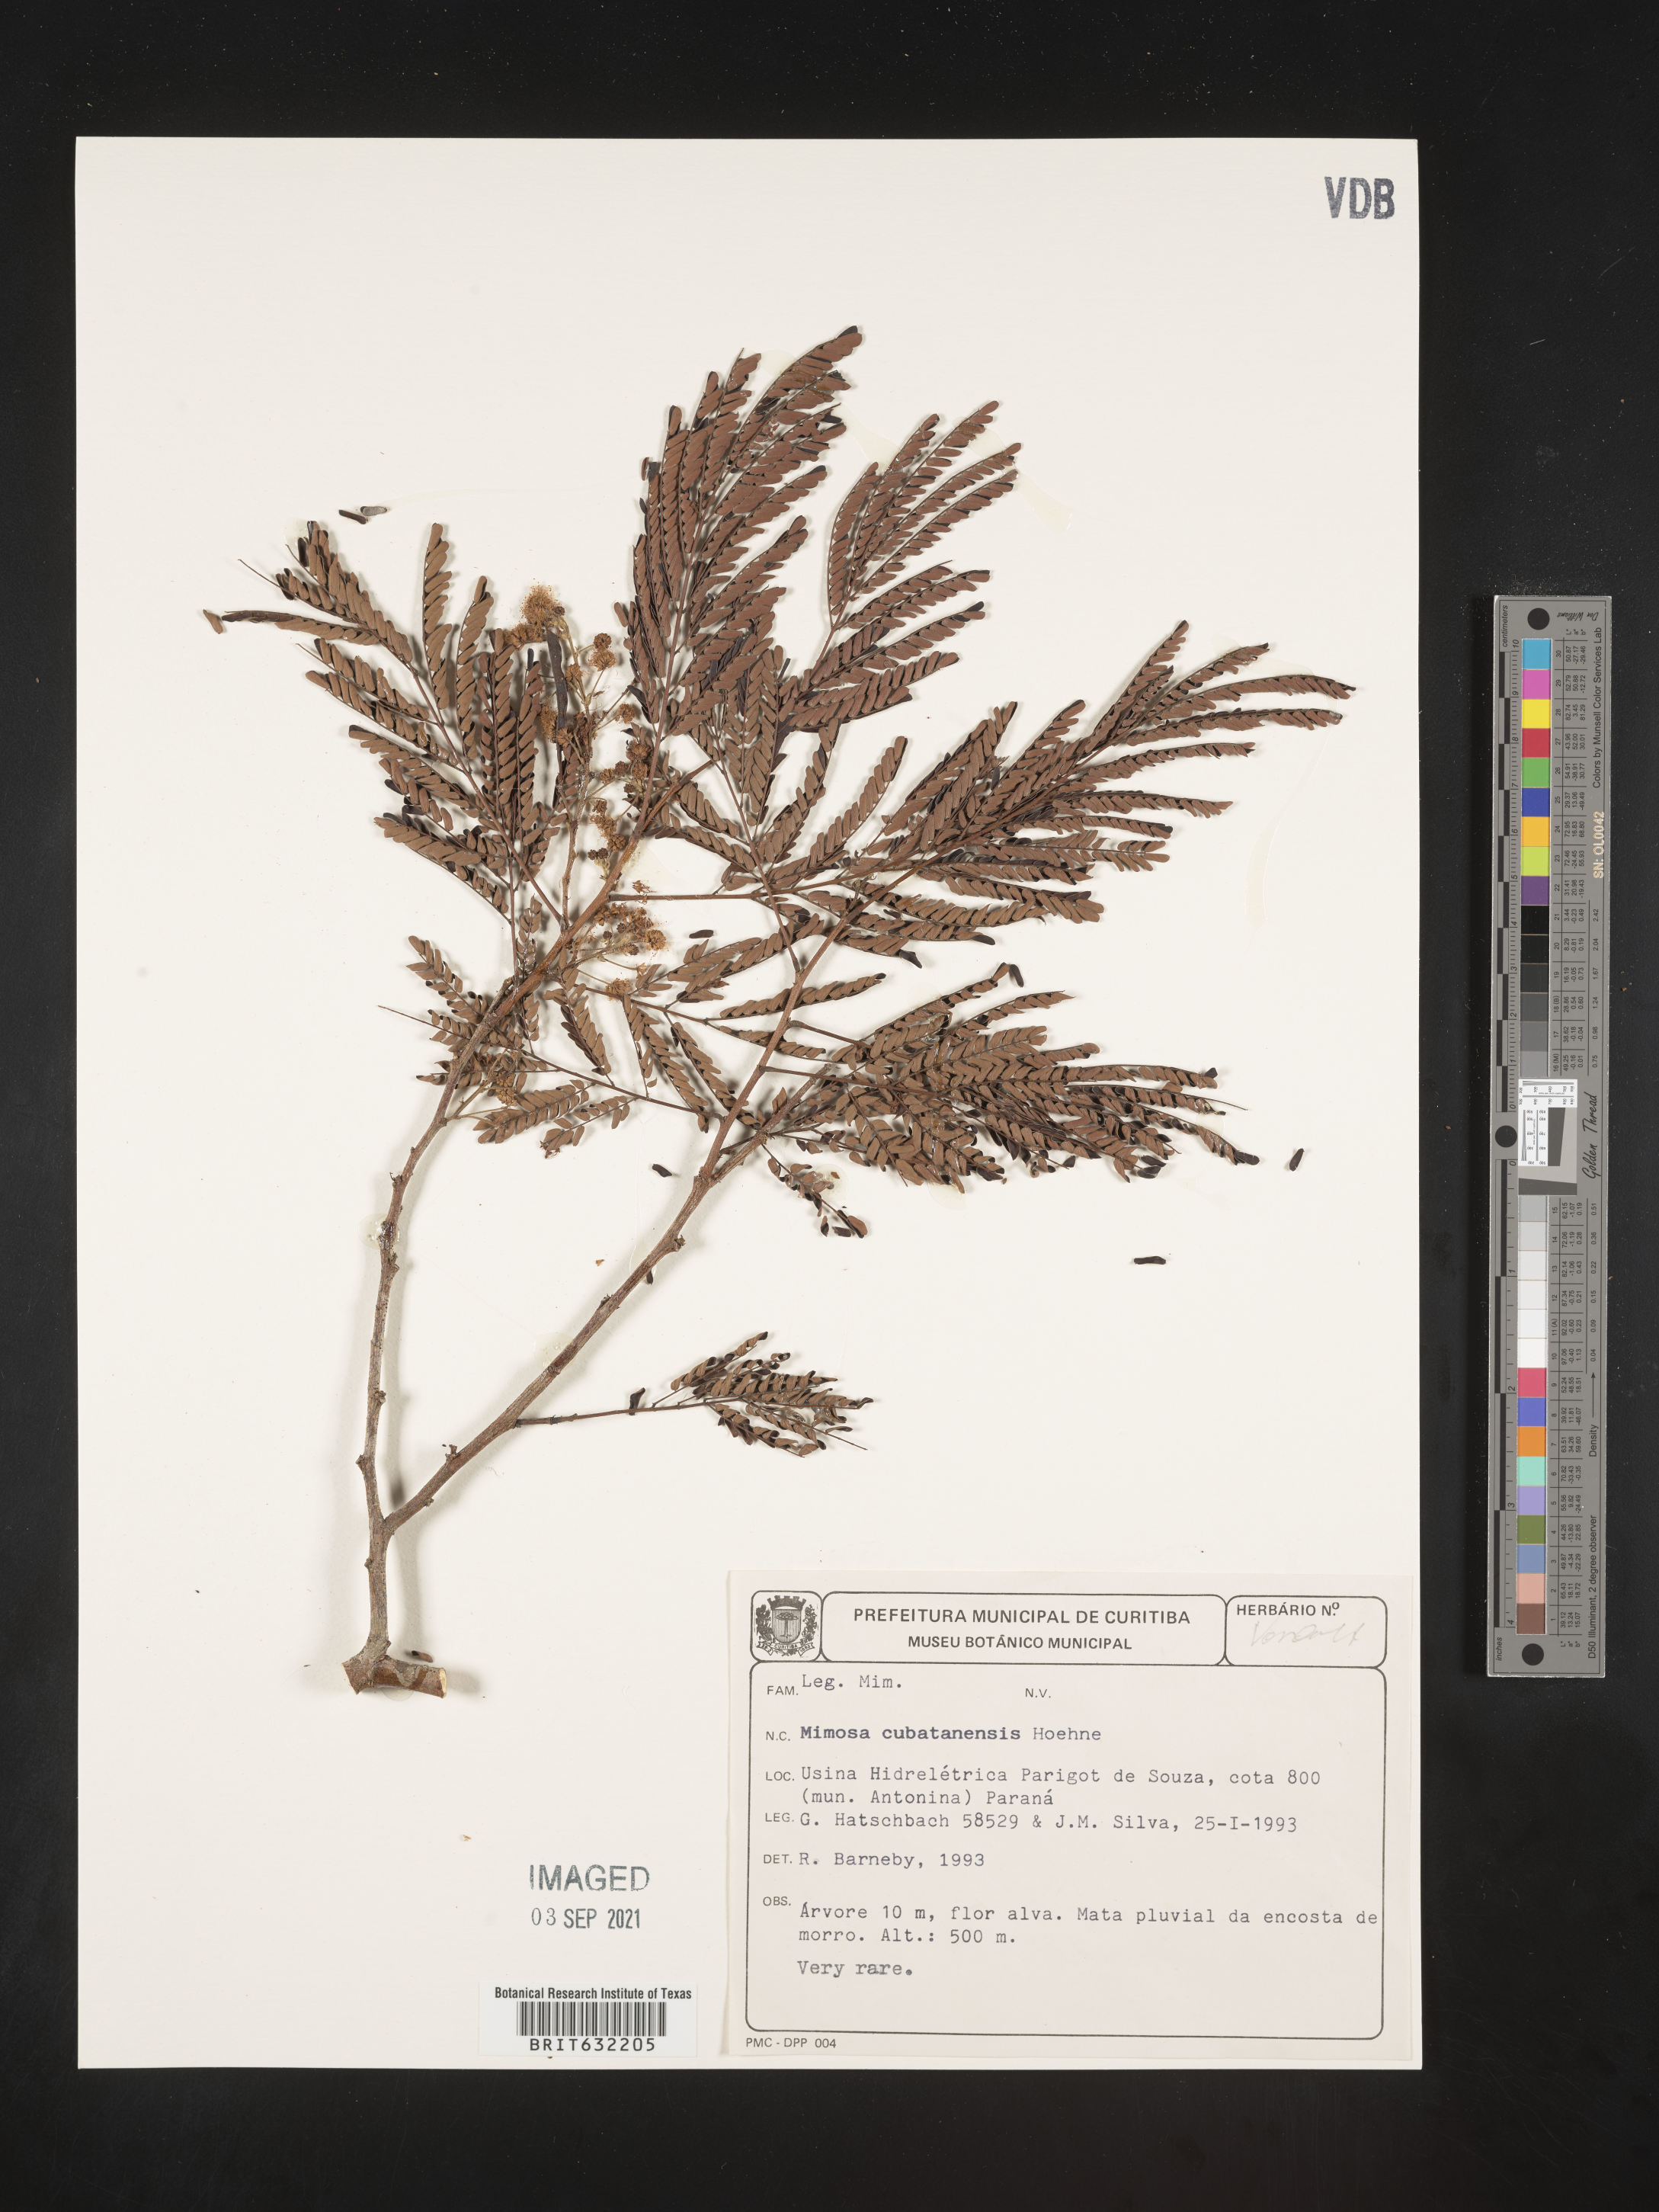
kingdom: Plantae
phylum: Tracheophyta
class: Magnoliopsida
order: Fabales
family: Fabaceae
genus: Mimosa
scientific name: Mimosa
